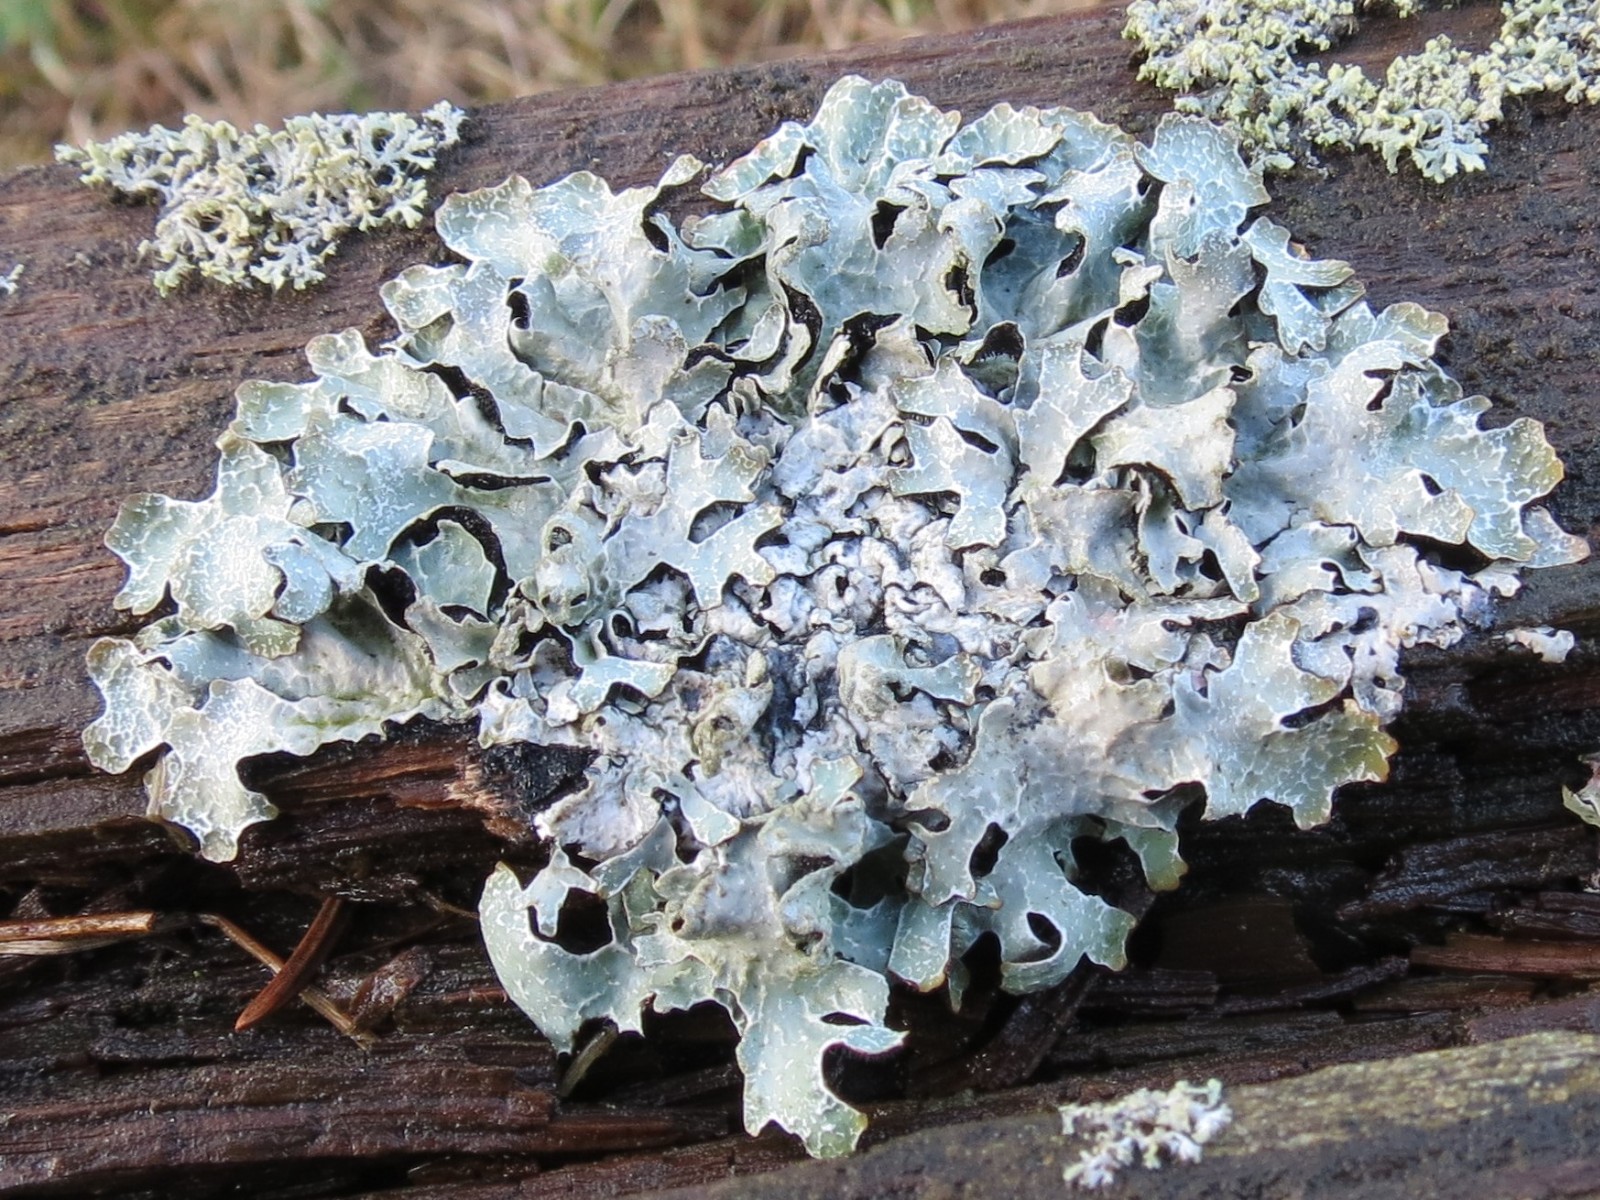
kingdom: Fungi
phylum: Ascomycota
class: Lecanoromycetes
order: Lecanorales
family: Parmeliaceae
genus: Parmelia
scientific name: Parmelia sulcata
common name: rynket skållav
